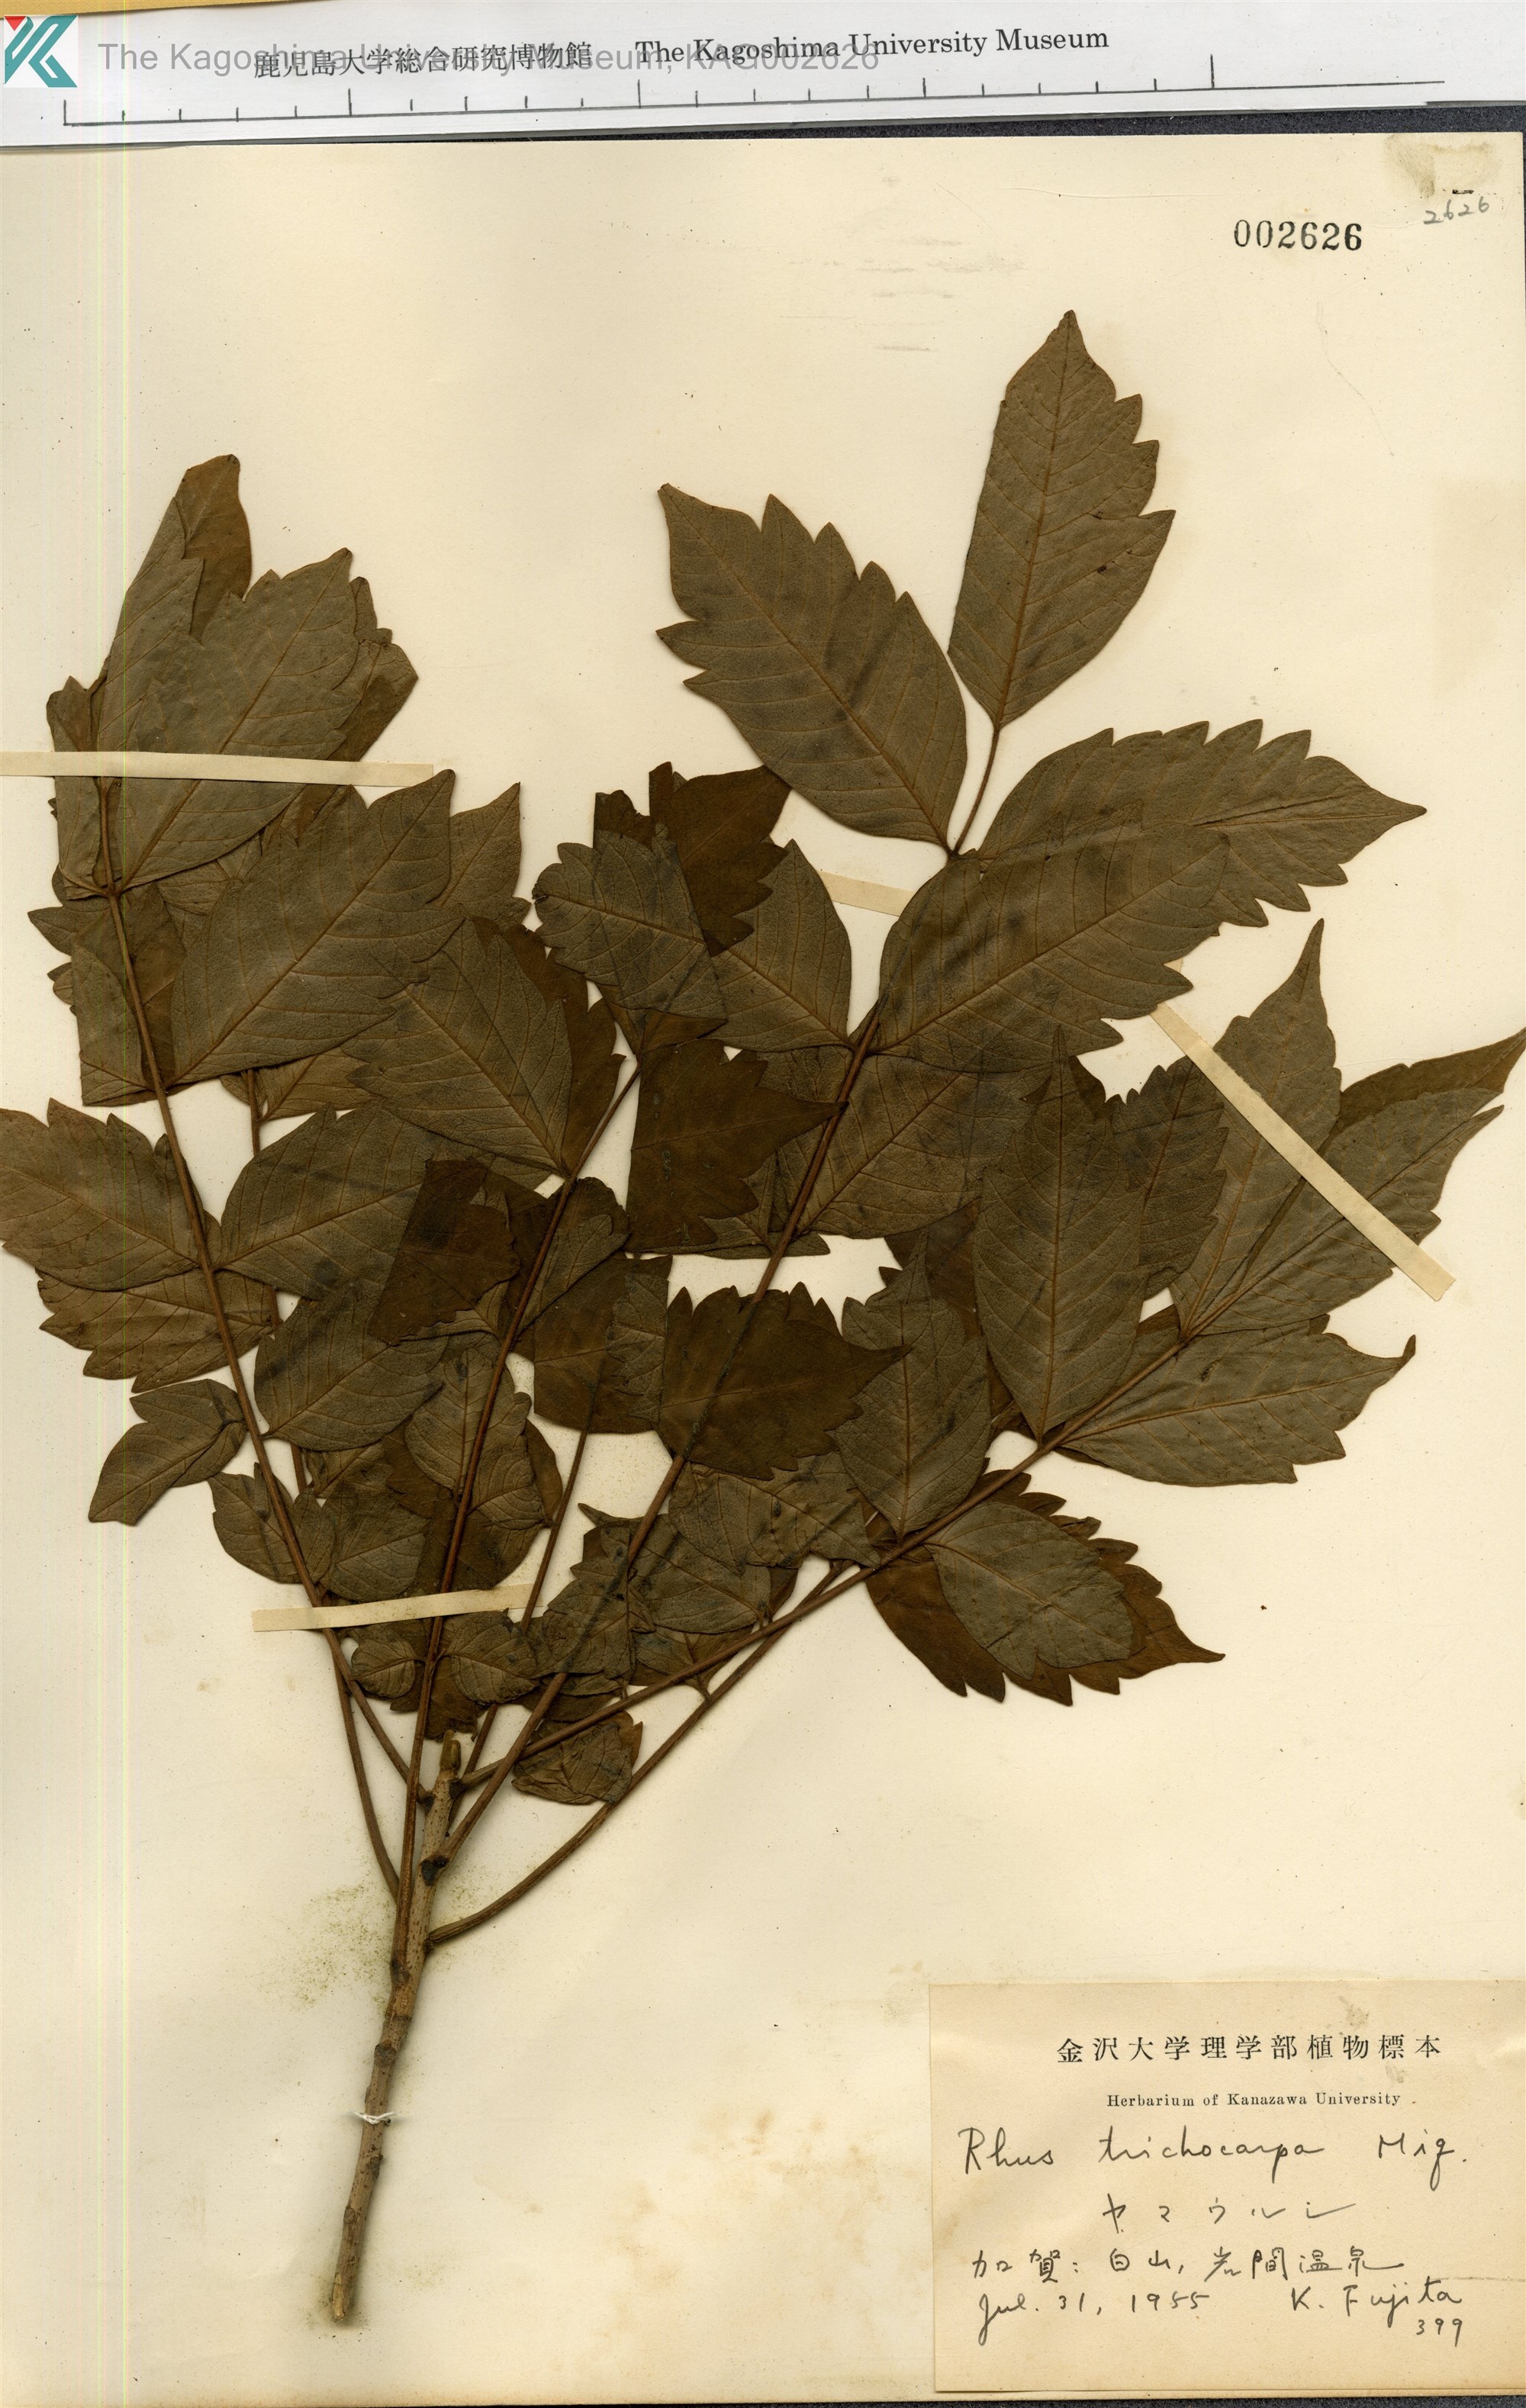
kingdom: Plantae
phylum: Tracheophyta
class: Magnoliopsida
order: Sapindales
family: Anacardiaceae
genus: Toxicodendron
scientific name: Toxicodendron trichocarpum
